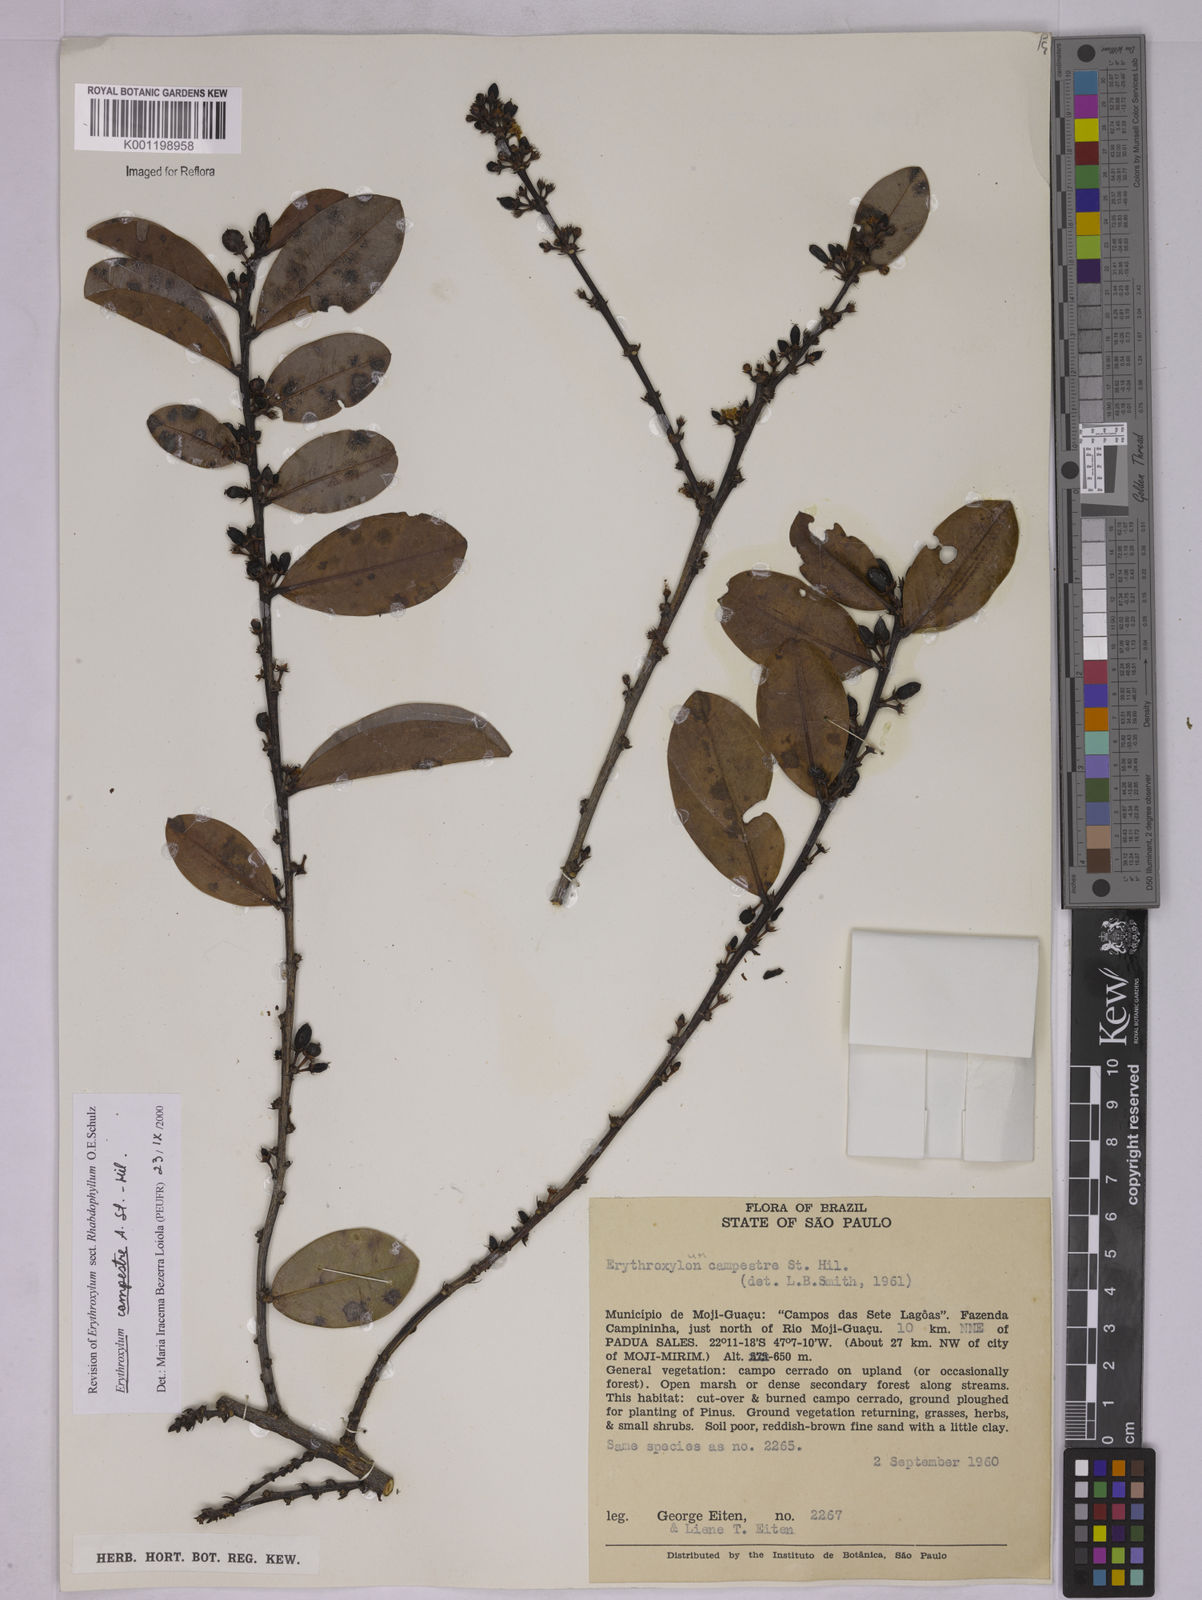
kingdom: Plantae
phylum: Tracheophyta
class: Magnoliopsida
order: Malpighiales
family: Erythroxylaceae
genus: Erythroxylum
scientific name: Erythroxylum campestre
